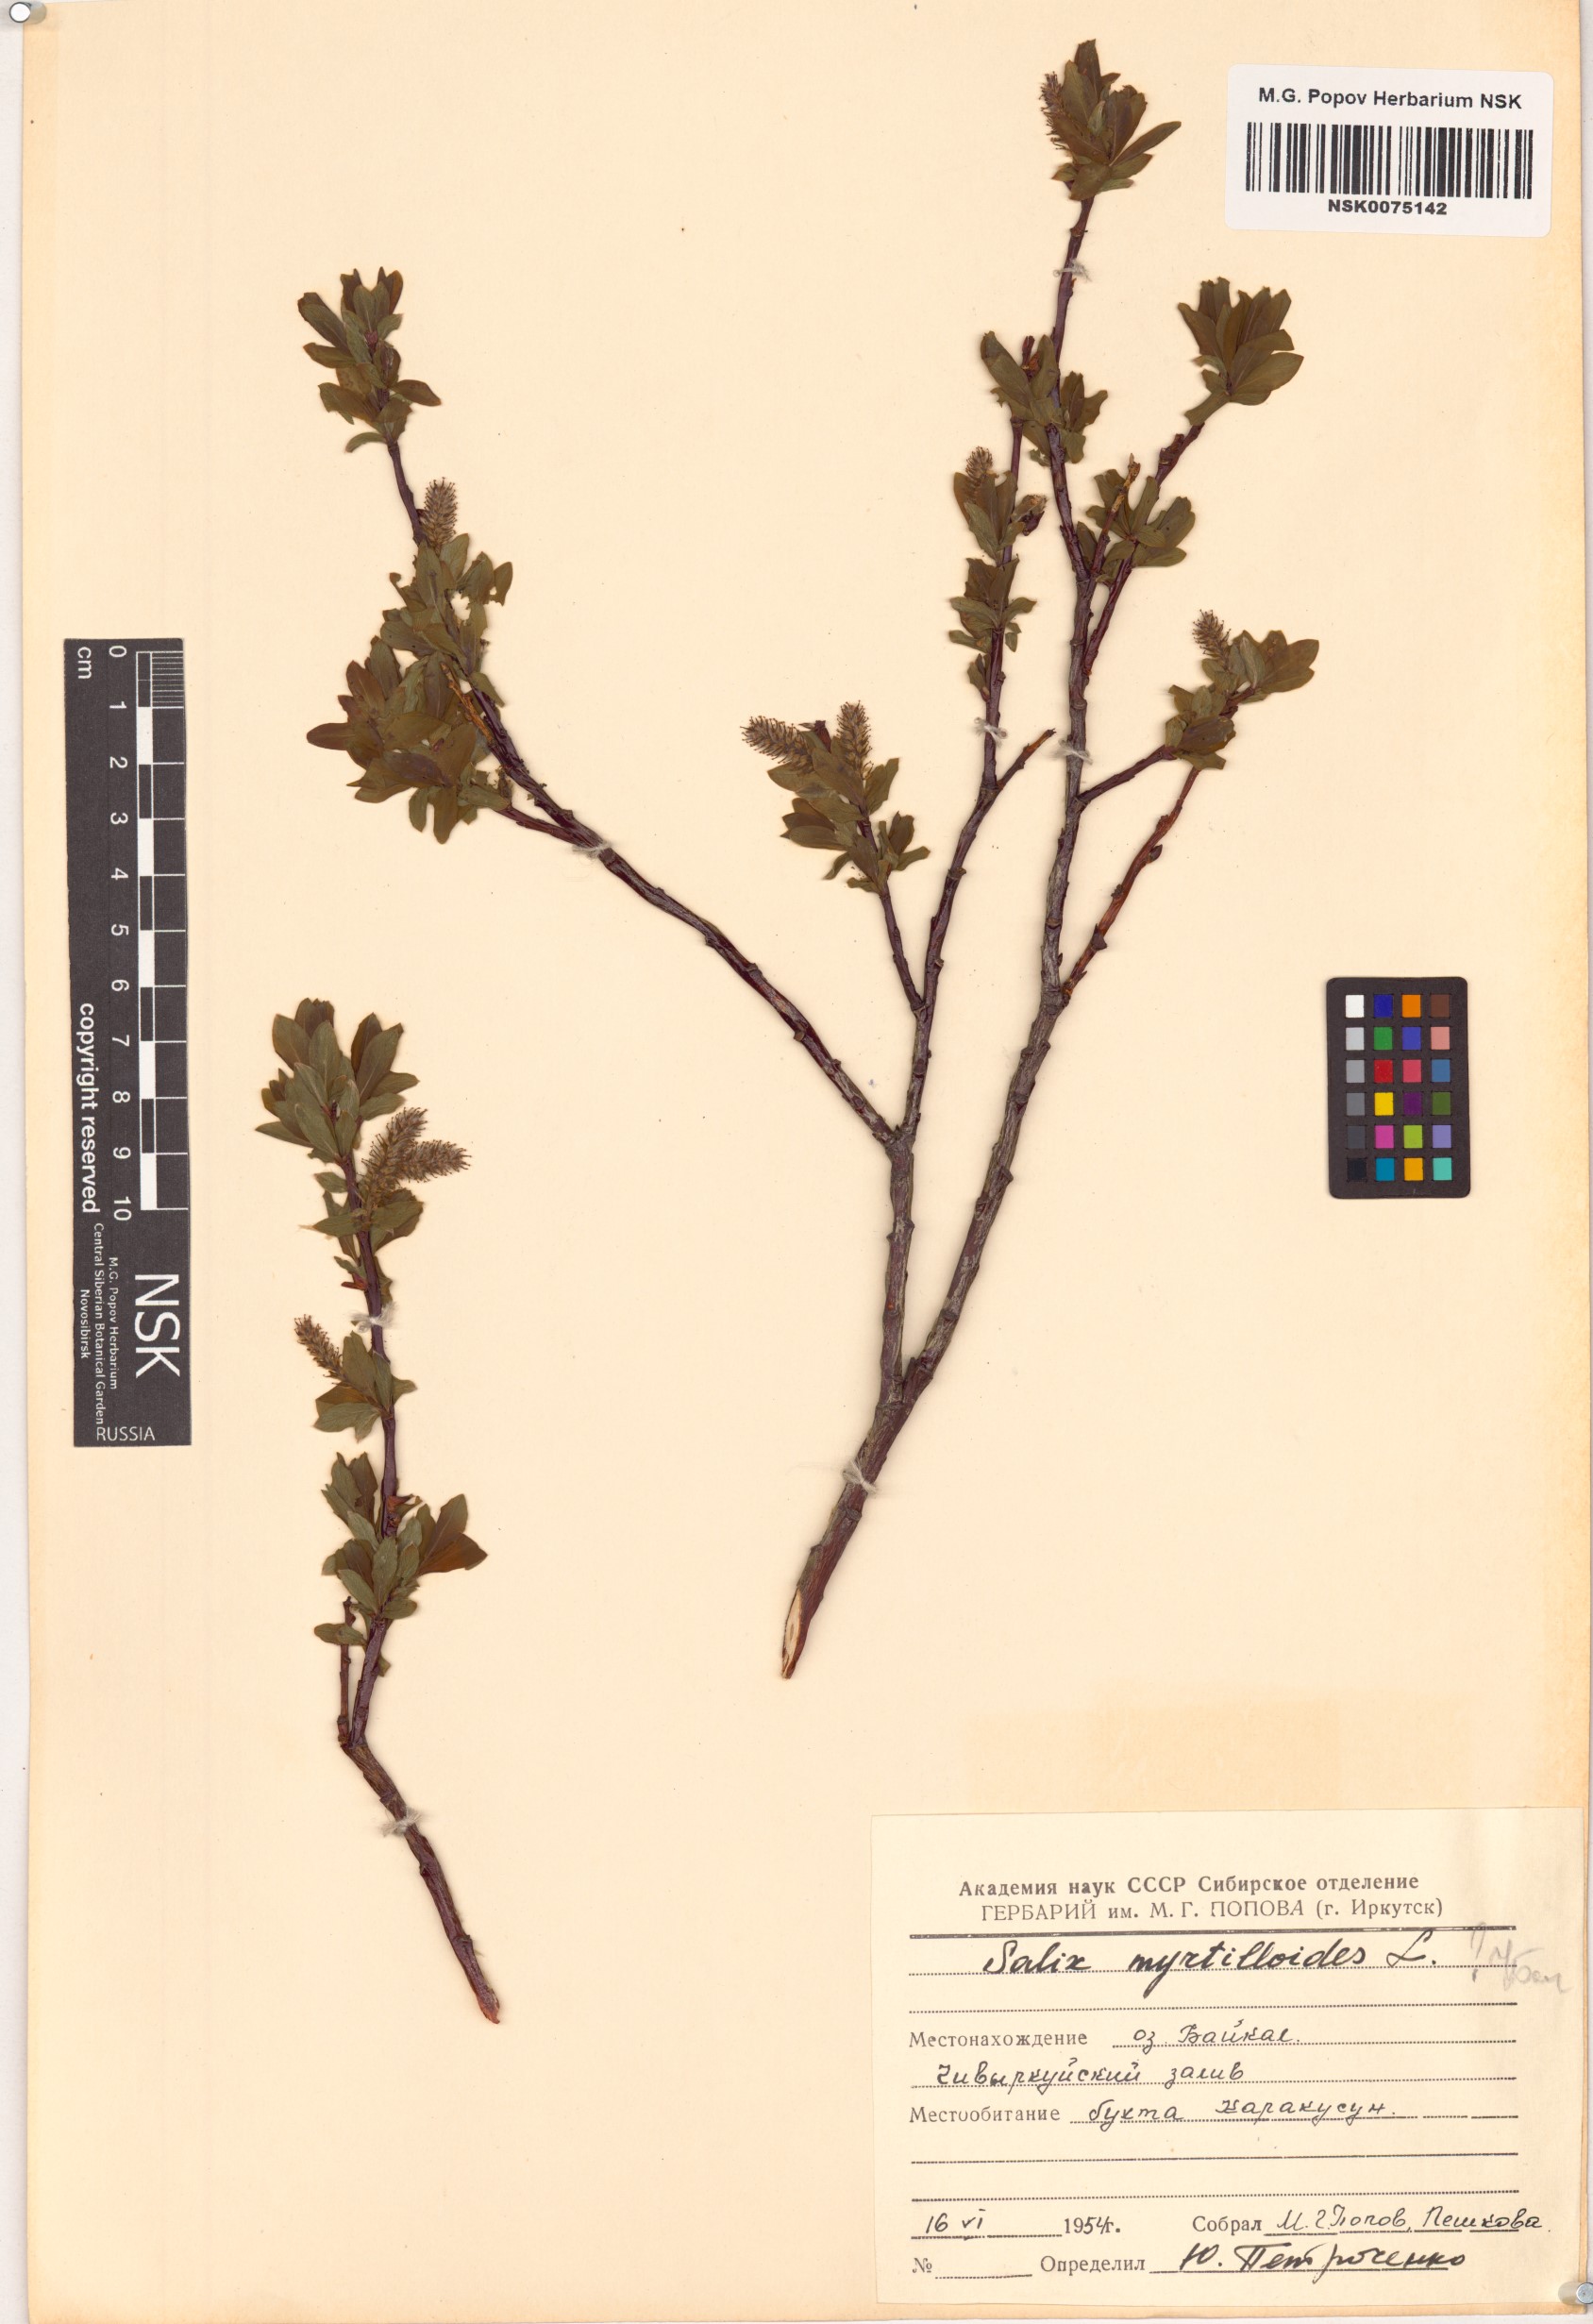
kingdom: Plantae
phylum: Tracheophyta
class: Magnoliopsida
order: Malpighiales
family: Salicaceae
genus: Salix
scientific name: Salix myrtilloides
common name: Myrtle-leaved willow
